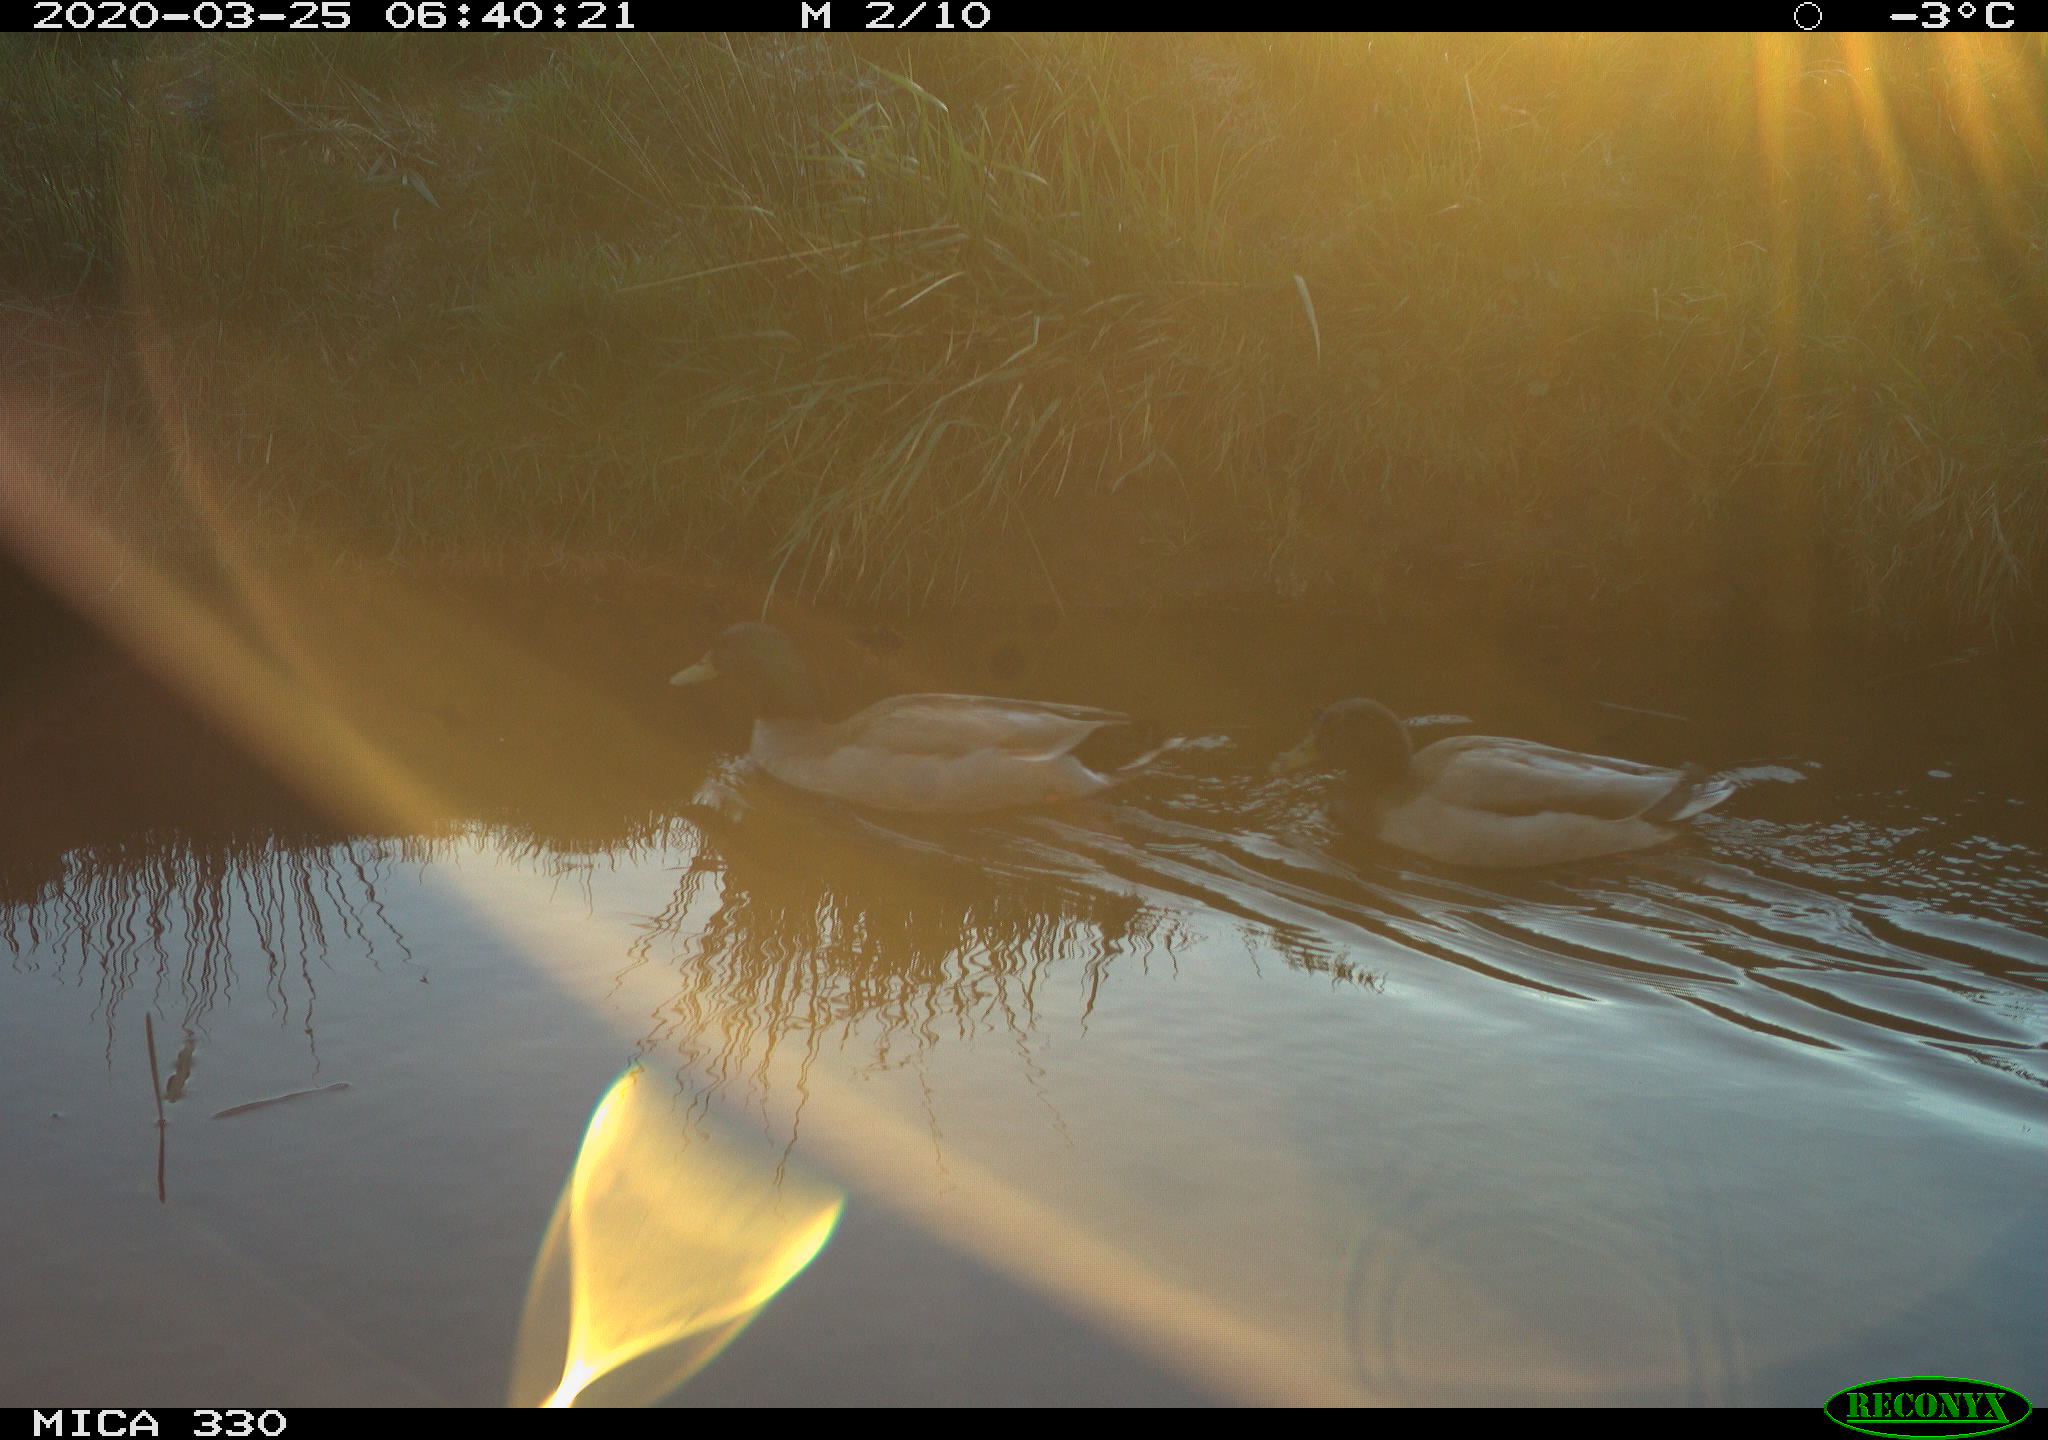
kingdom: Animalia
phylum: Chordata
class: Aves
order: Anseriformes
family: Anatidae
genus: Anas
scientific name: Anas platyrhynchos
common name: Mallard
